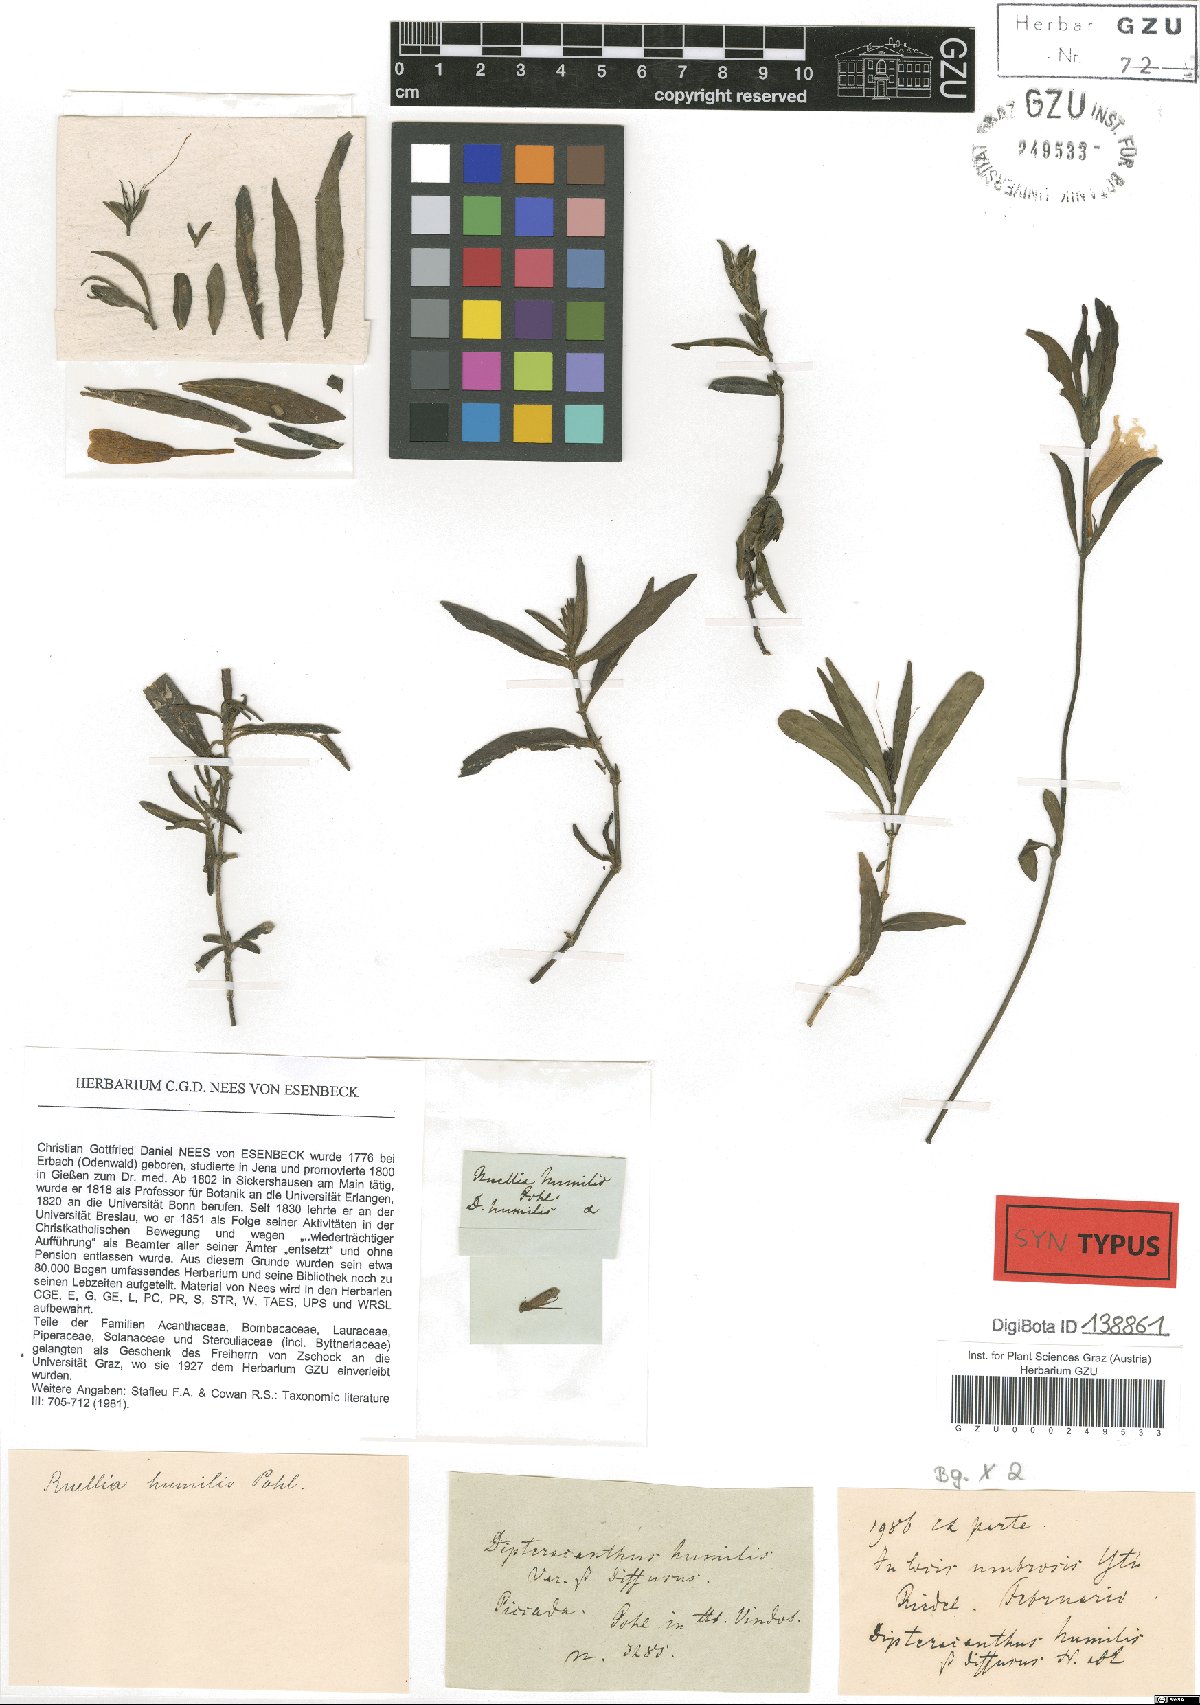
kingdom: Plantae
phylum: Tracheophyta
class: Magnoliopsida
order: Lamiales
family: Acanthaceae
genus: Ruellia
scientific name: Ruellia geminiflora
